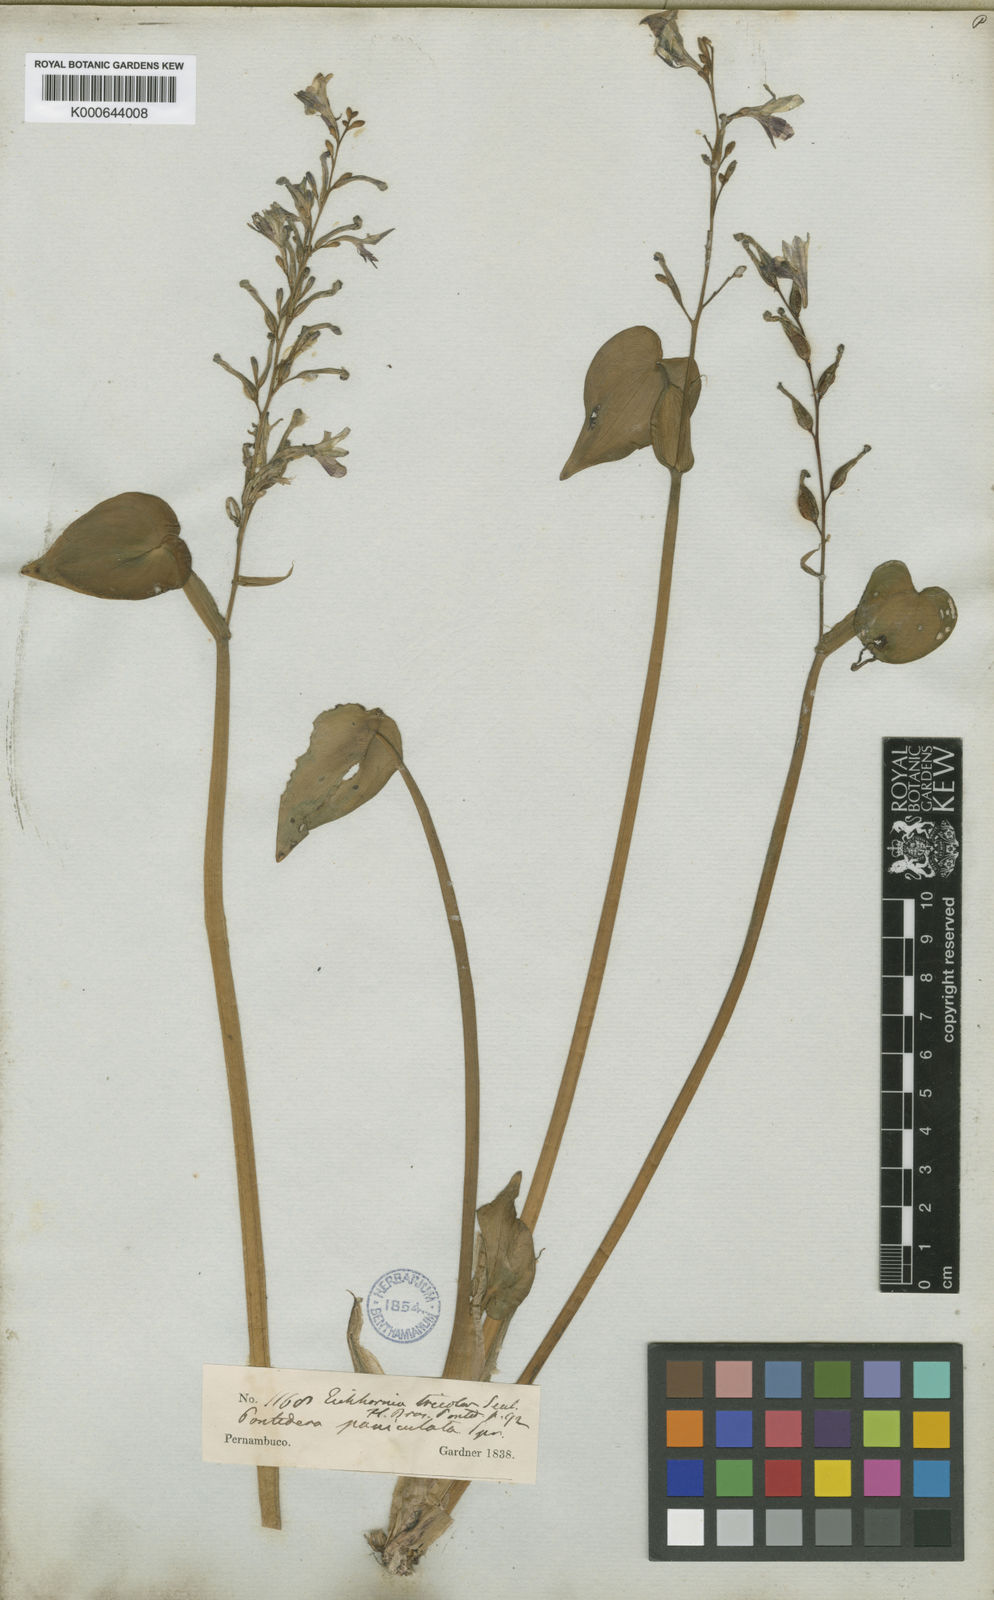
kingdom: Plantae
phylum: Tracheophyta
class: Liliopsida
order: Commelinales
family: Pontederiaceae
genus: Pontederia
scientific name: Pontederia paniculata
